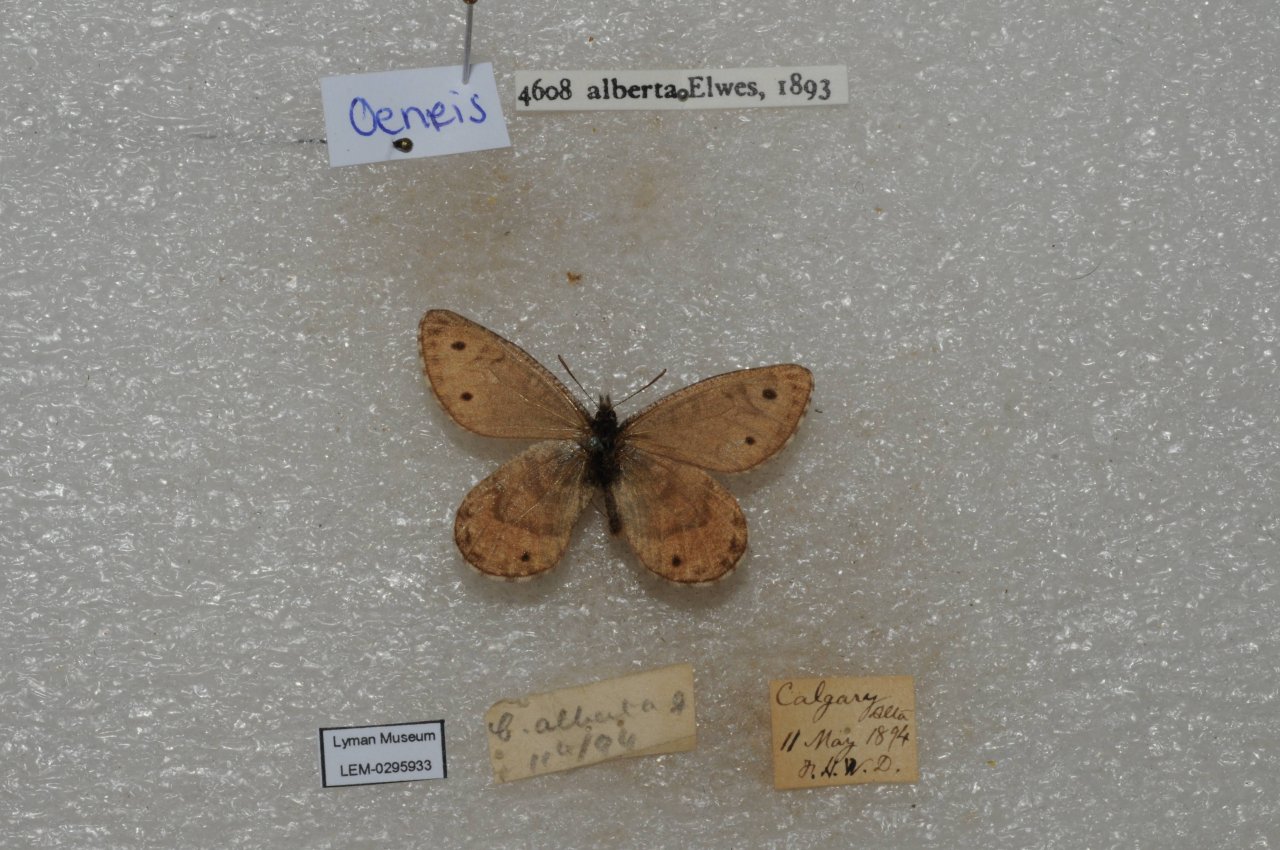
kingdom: Animalia
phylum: Arthropoda
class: Insecta
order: Lepidoptera
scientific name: Lepidoptera
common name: Butterflies
